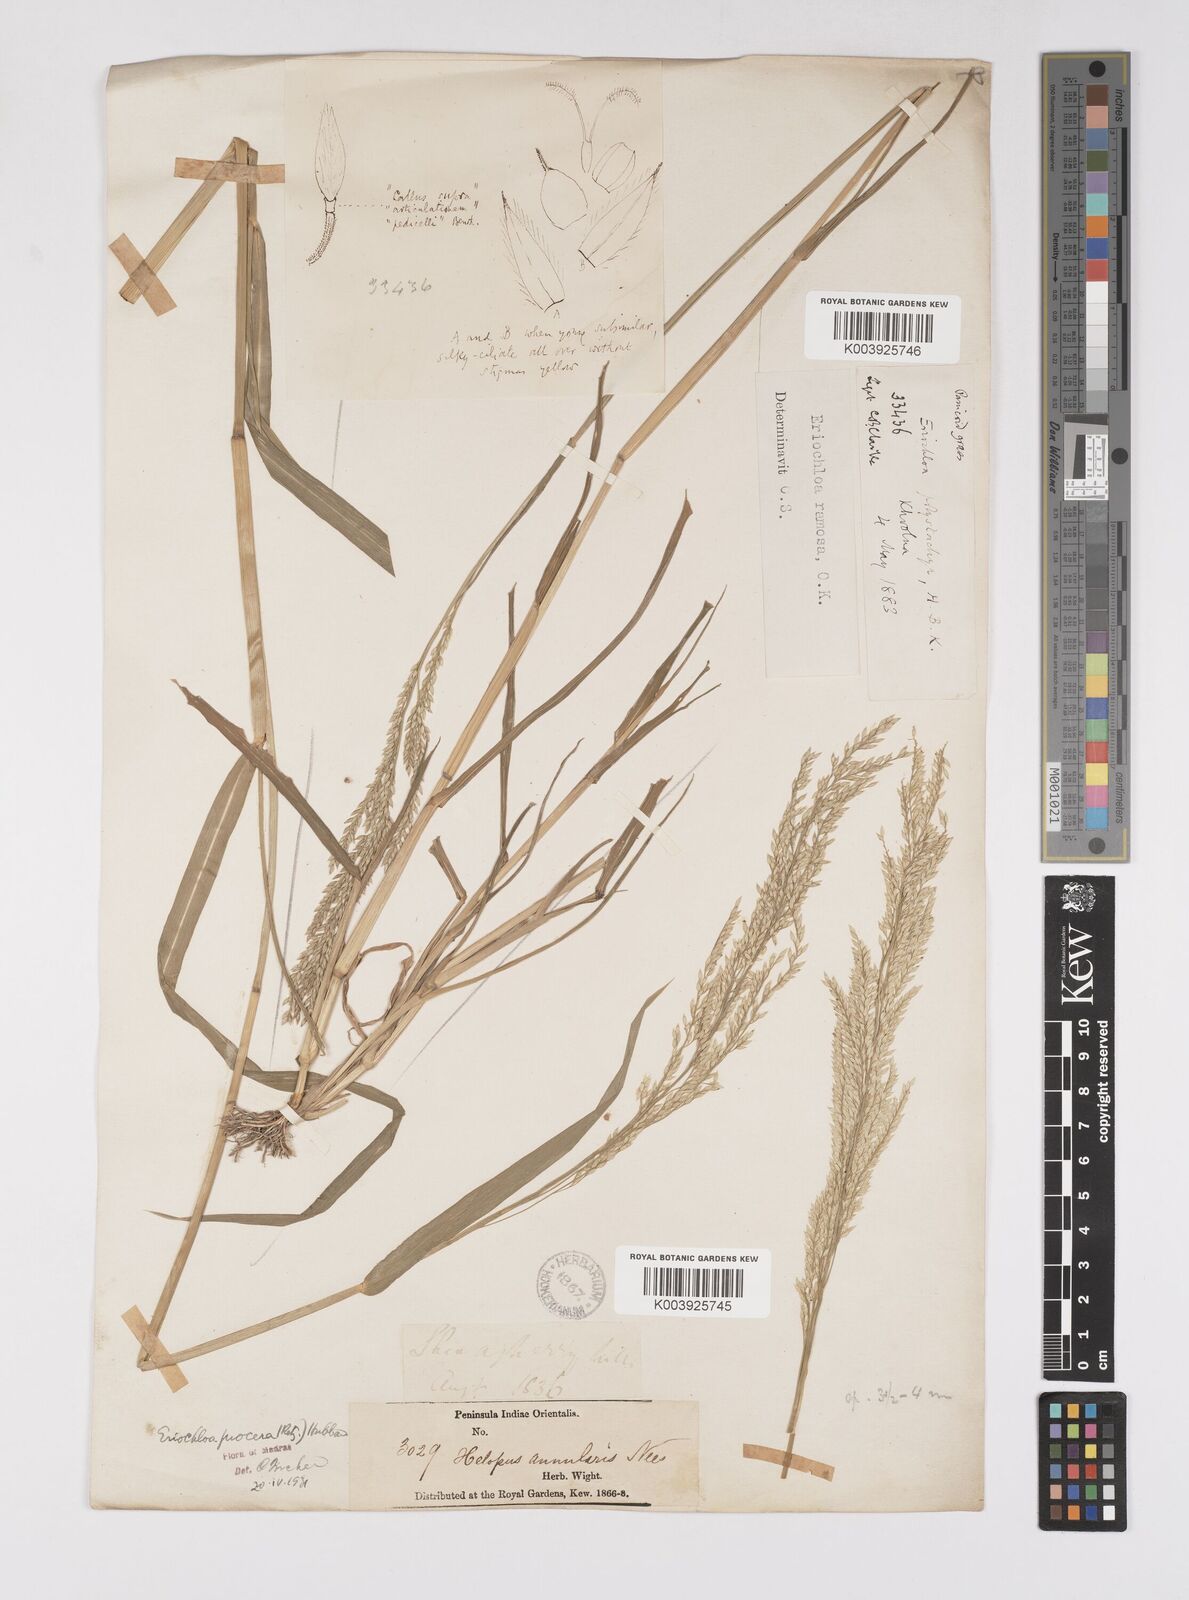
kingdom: Plantae
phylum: Tracheophyta
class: Liliopsida
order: Poales
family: Poaceae
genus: Eriochloa
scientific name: Eriochloa procera
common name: Spring grass
